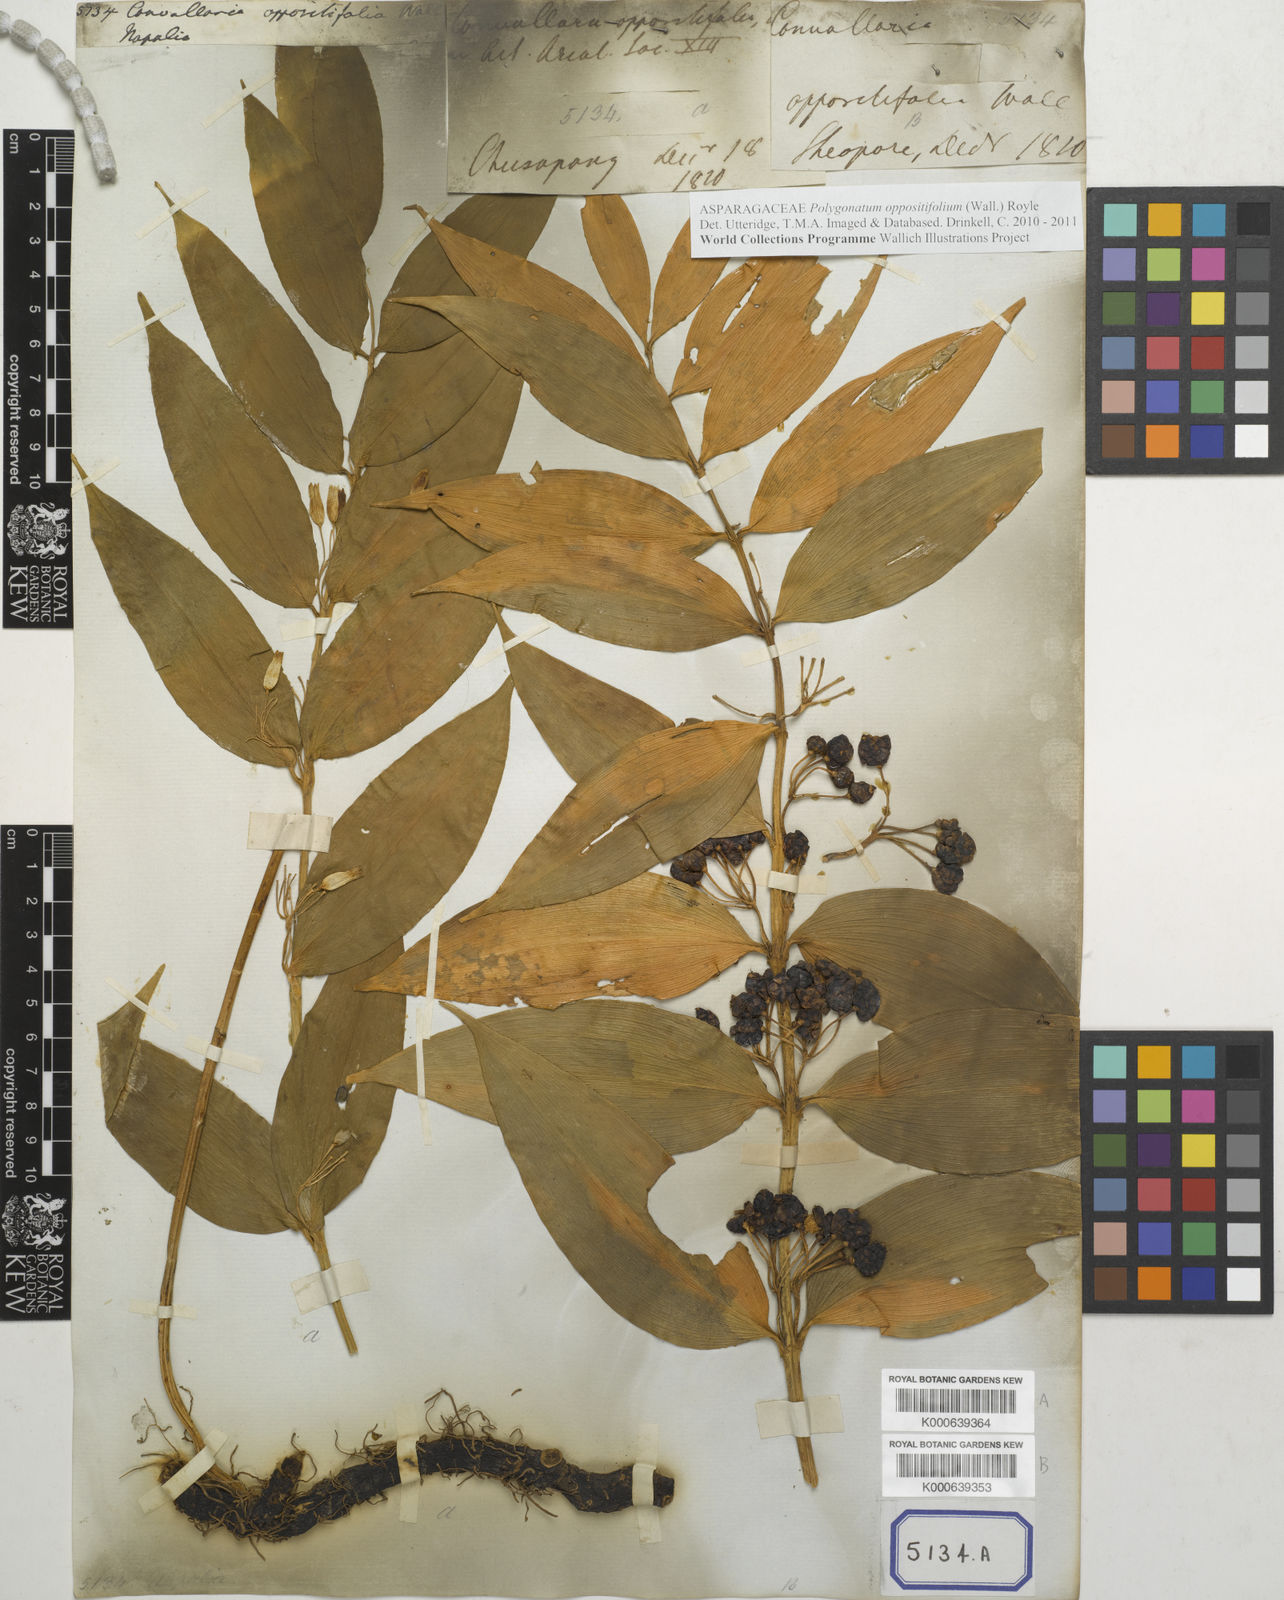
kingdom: Plantae
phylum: Tracheophyta
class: Liliopsida
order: Asparagales
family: Asparagaceae
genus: Polygonatum
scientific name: Polygonatum oppositifolium
